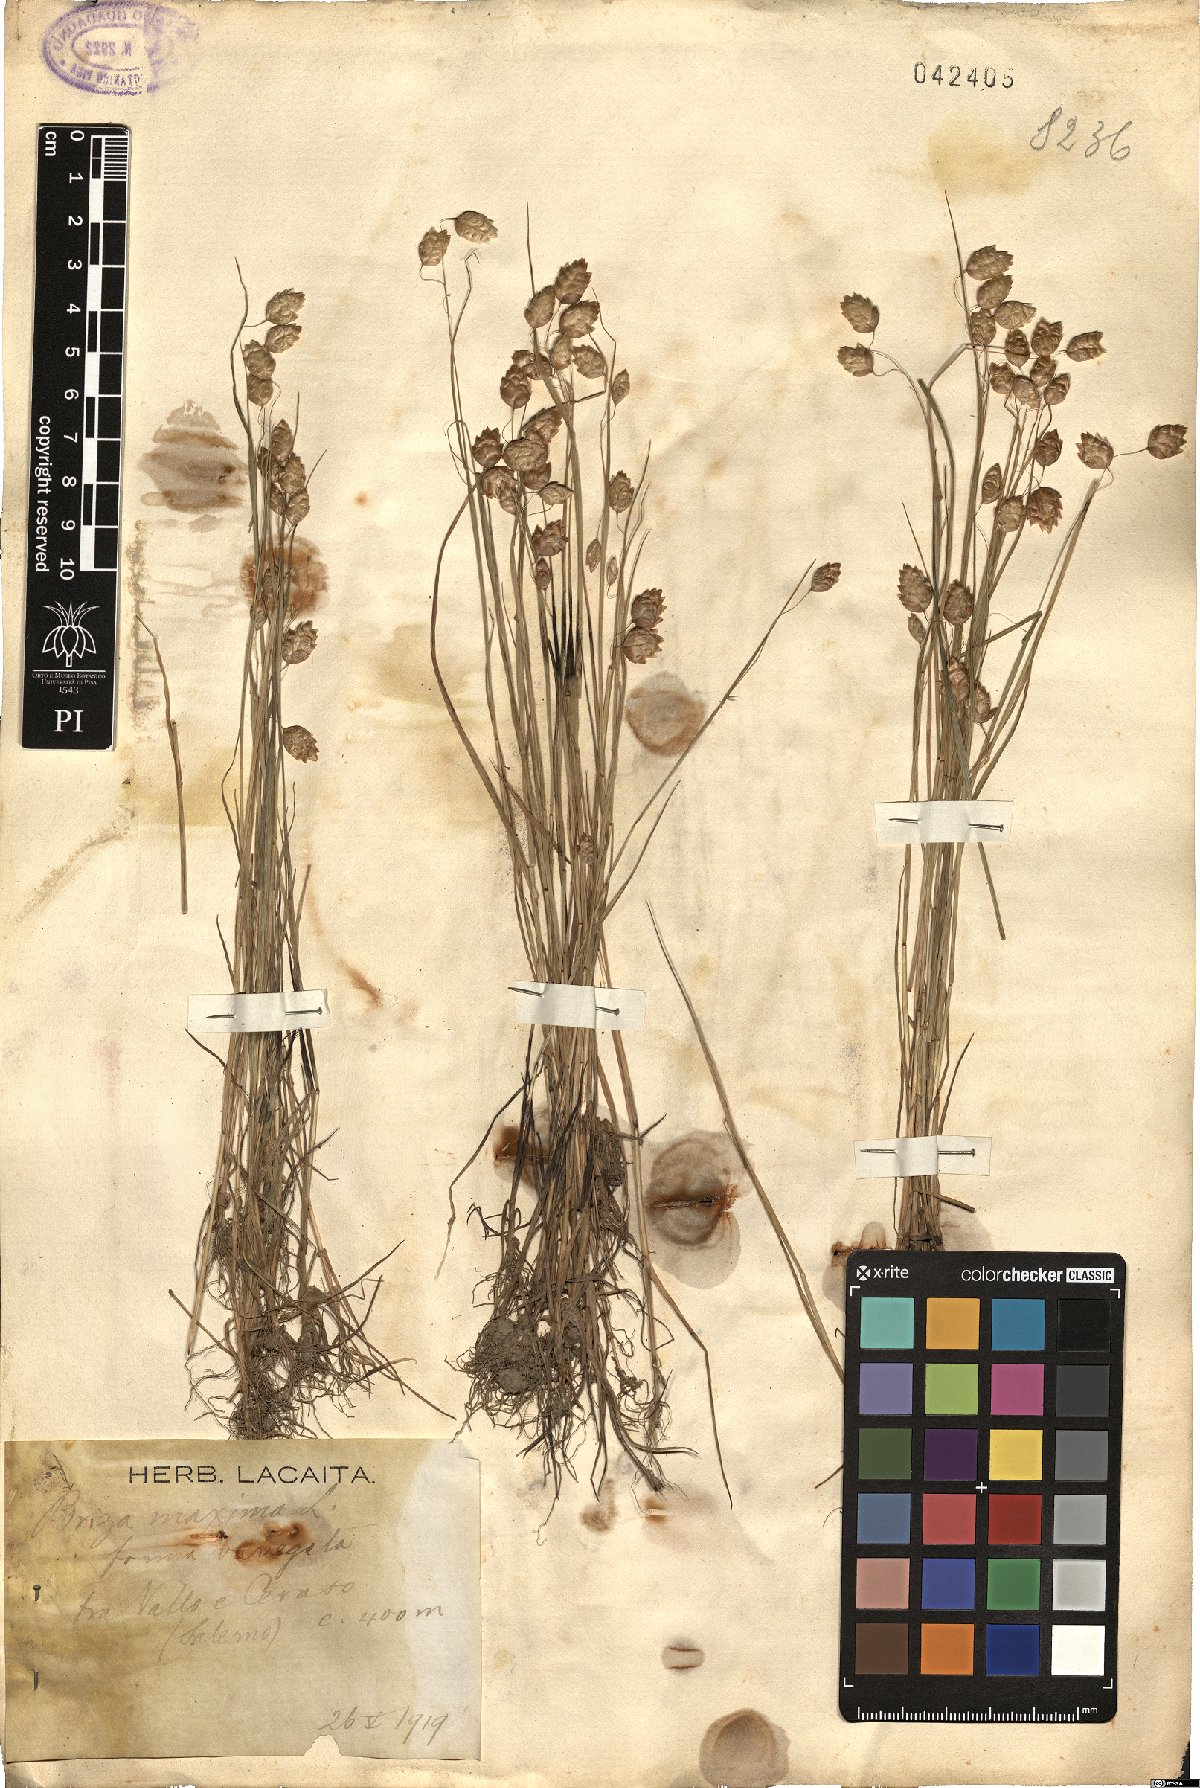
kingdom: Plantae
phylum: Tracheophyta
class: Liliopsida
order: Poales
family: Poaceae
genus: Briza
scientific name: Briza maxima
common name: Big quakinggrass
